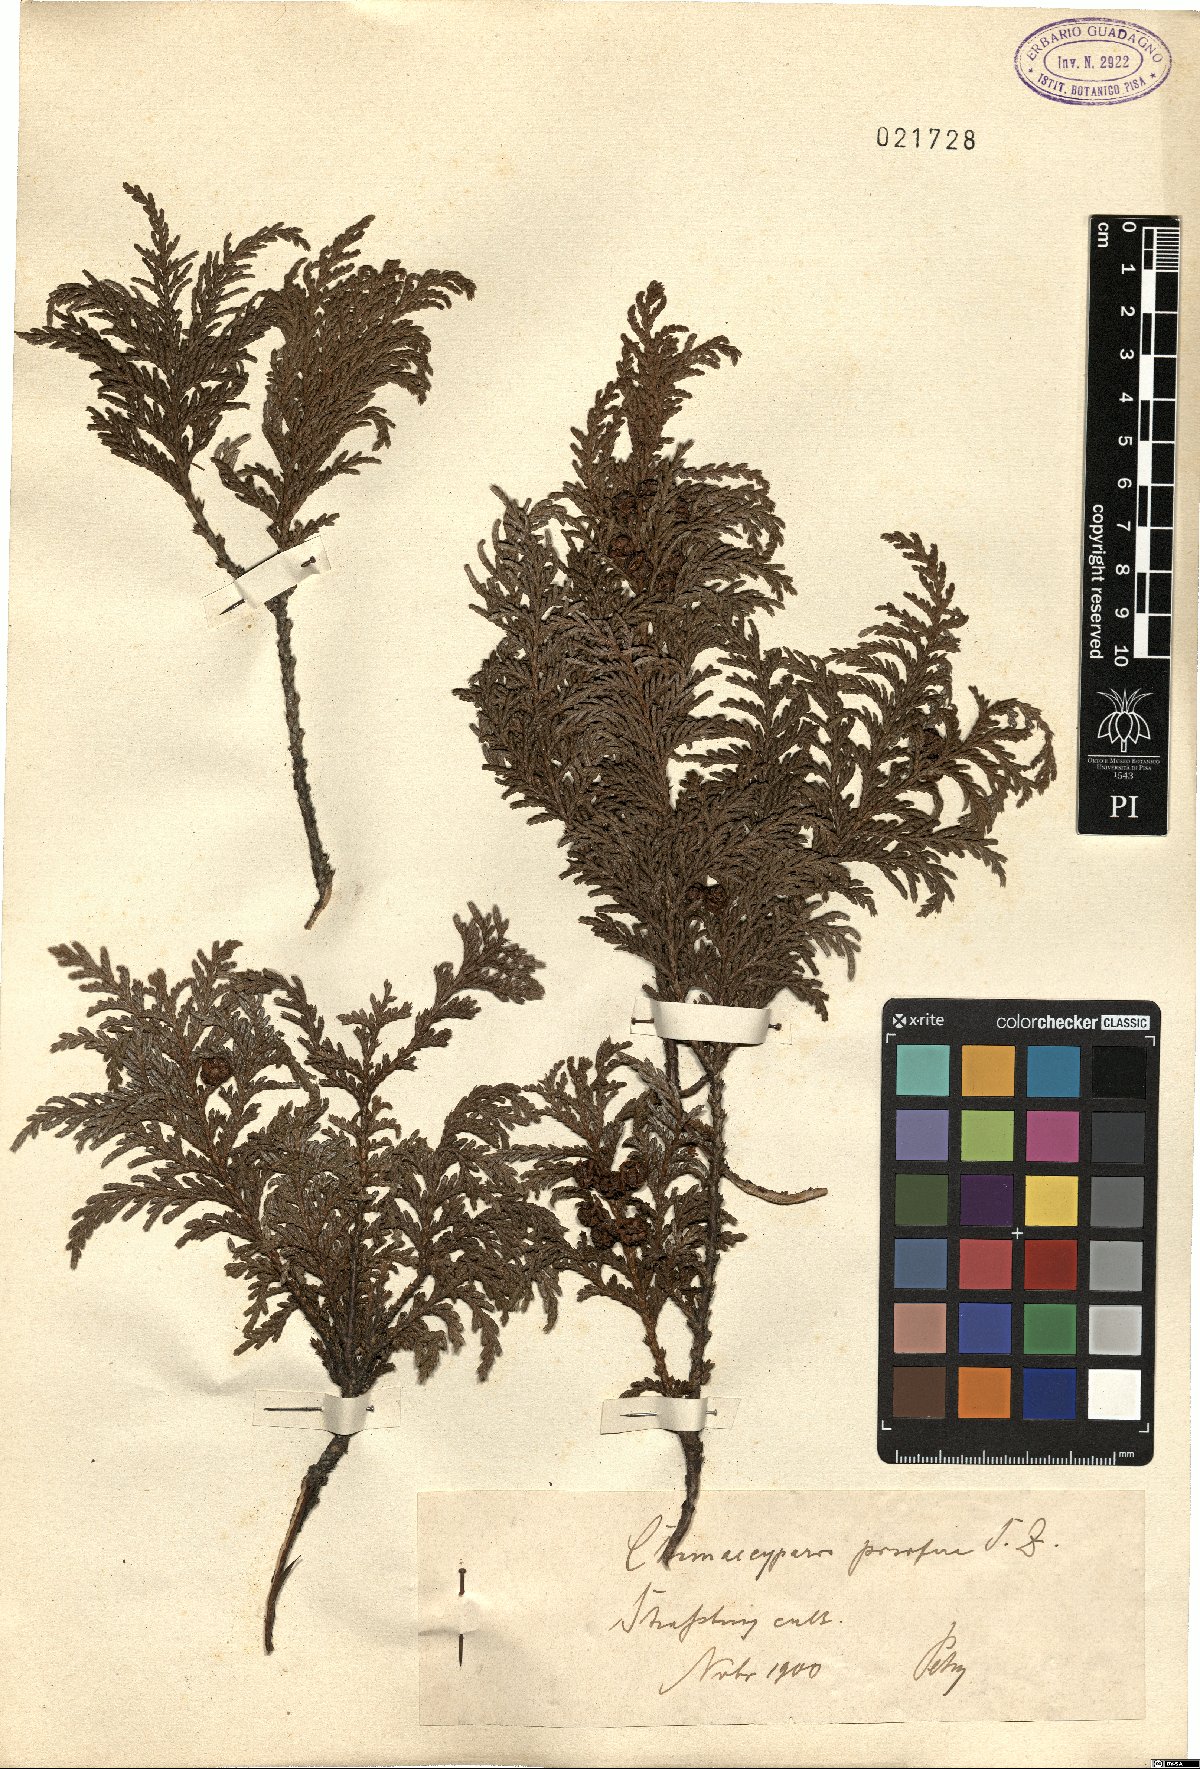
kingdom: Plantae
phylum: Tracheophyta
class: Pinopsida
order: Pinales
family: Cupressaceae
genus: Chamaecyparis
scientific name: Chamaecyparis pisifera
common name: Sawara cypress
